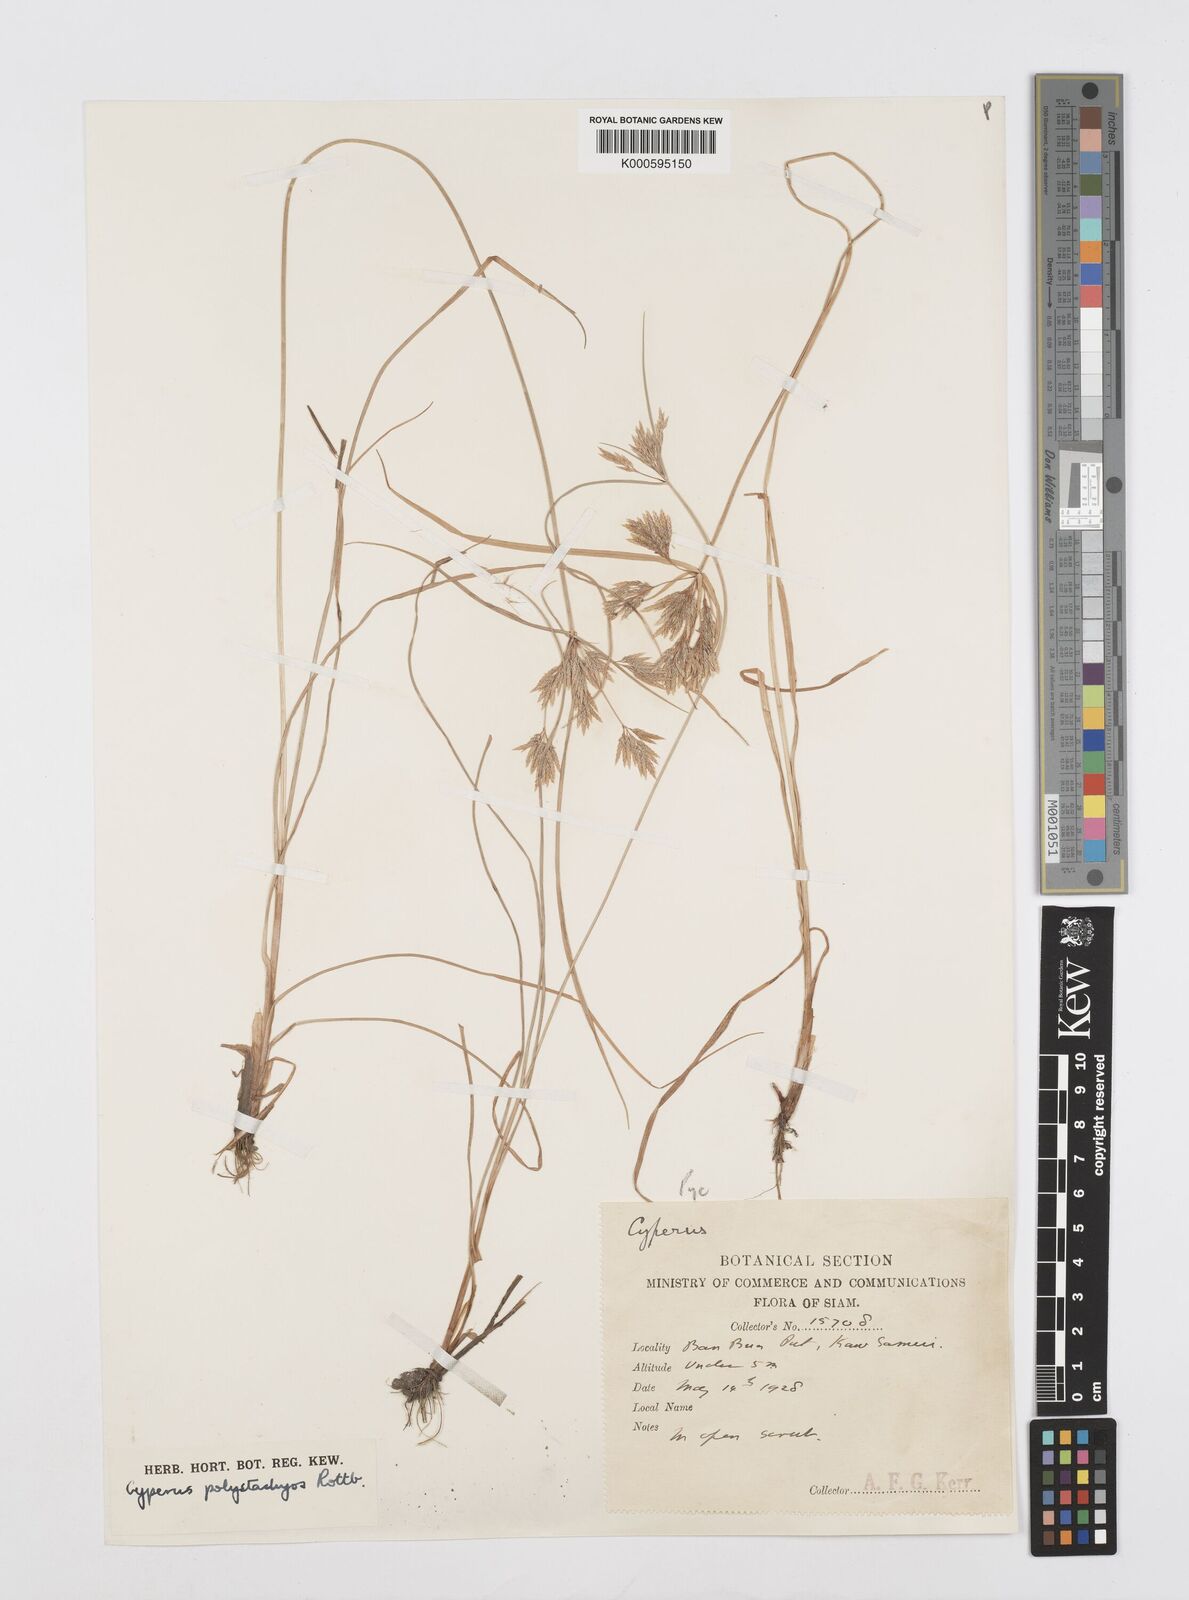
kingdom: Plantae
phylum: Tracheophyta
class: Liliopsida
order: Poales
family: Cyperaceae
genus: Cyperus
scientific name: Cyperus polystachyos
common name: Bunchy flat sedge
